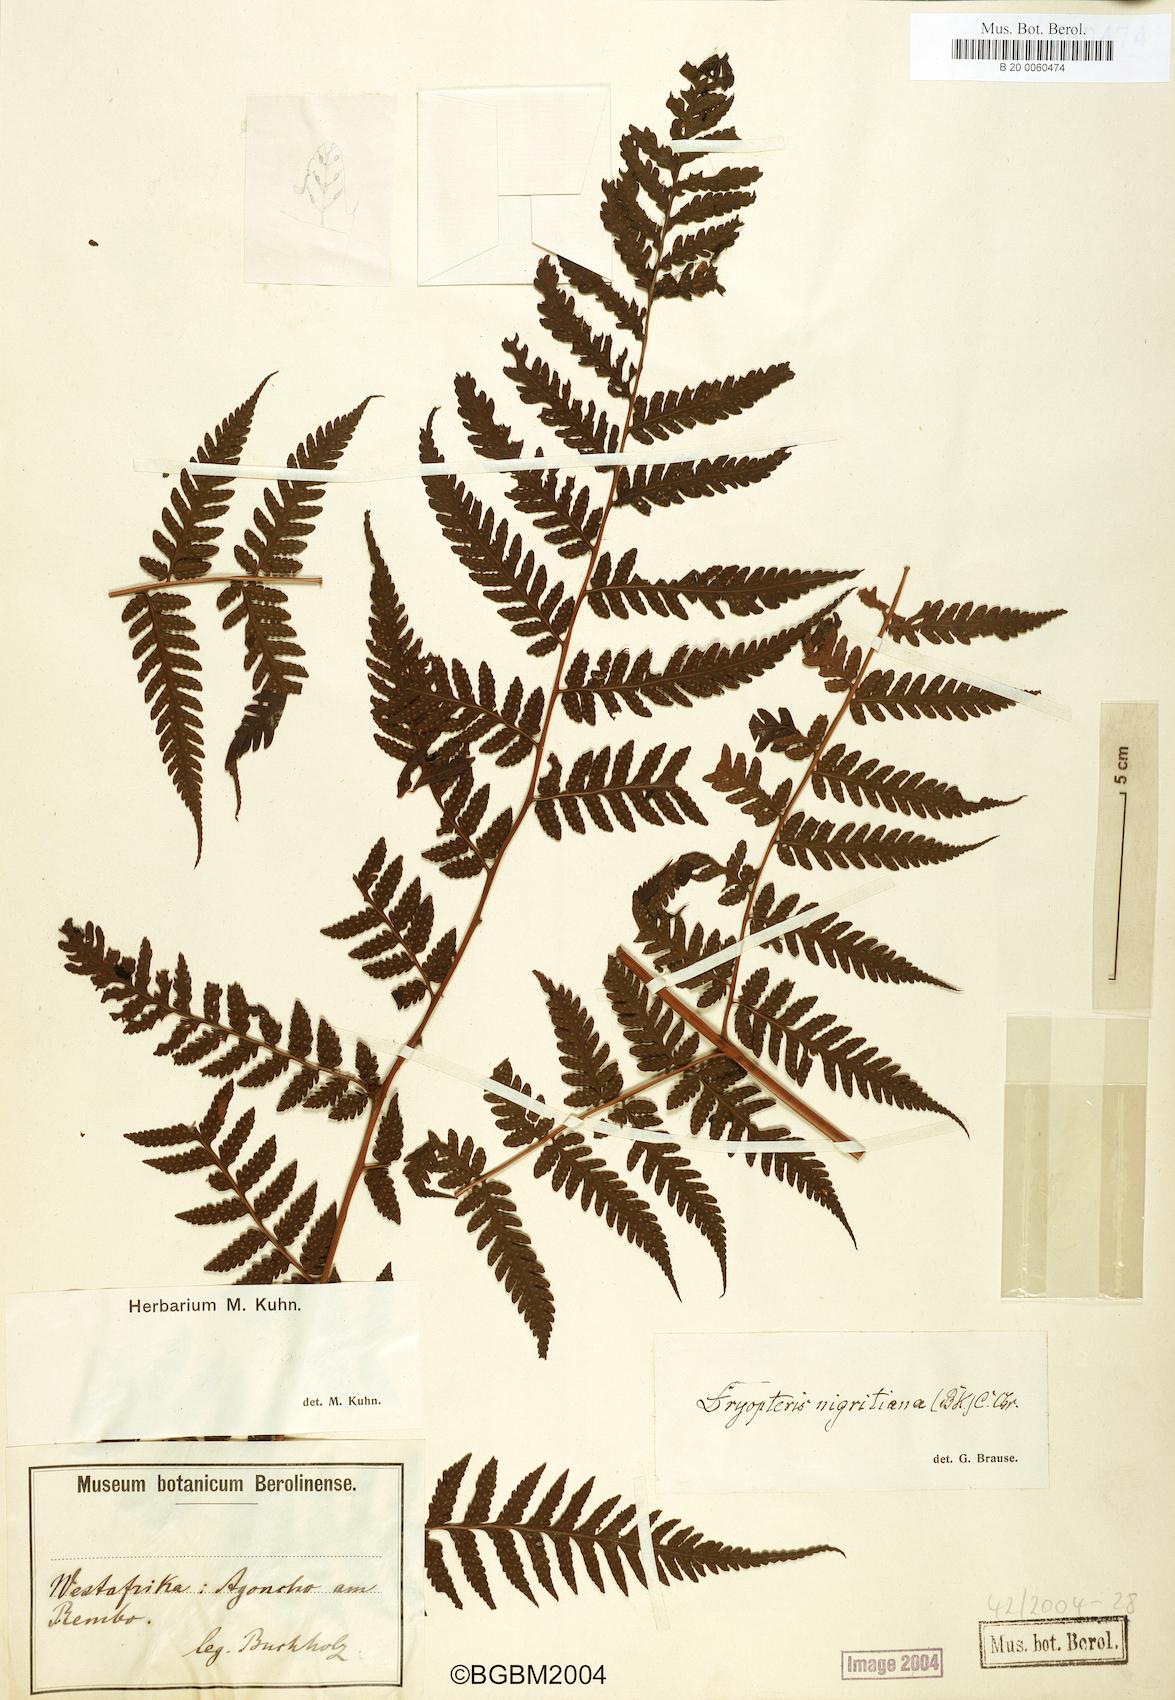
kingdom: Plantae
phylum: Tracheophyta
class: Polypodiopsida
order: Polypodiales
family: Dryopteridaceae
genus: Parapolystichum
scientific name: Parapolystichum nigritianum
